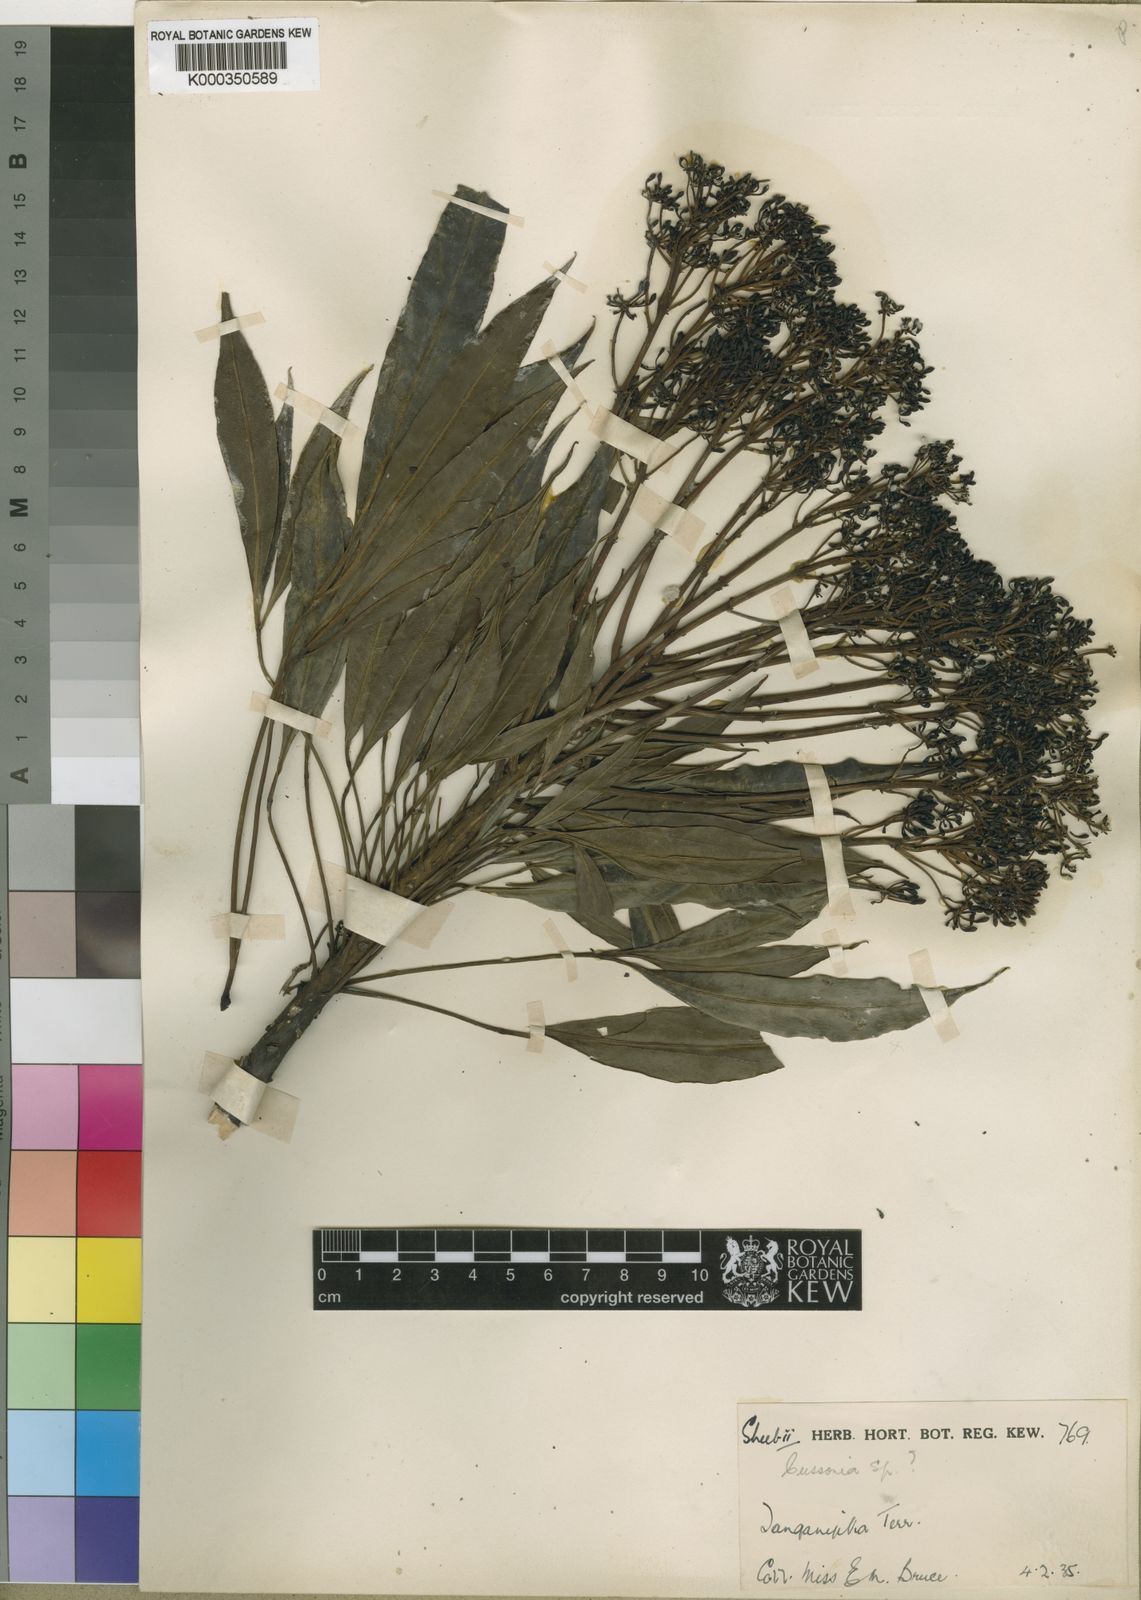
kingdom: Plantae
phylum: Tracheophyta
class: Magnoliopsida
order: Apiales
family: Araliaceae
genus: Neocussonia
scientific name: Neocussonia lukwangulensis
